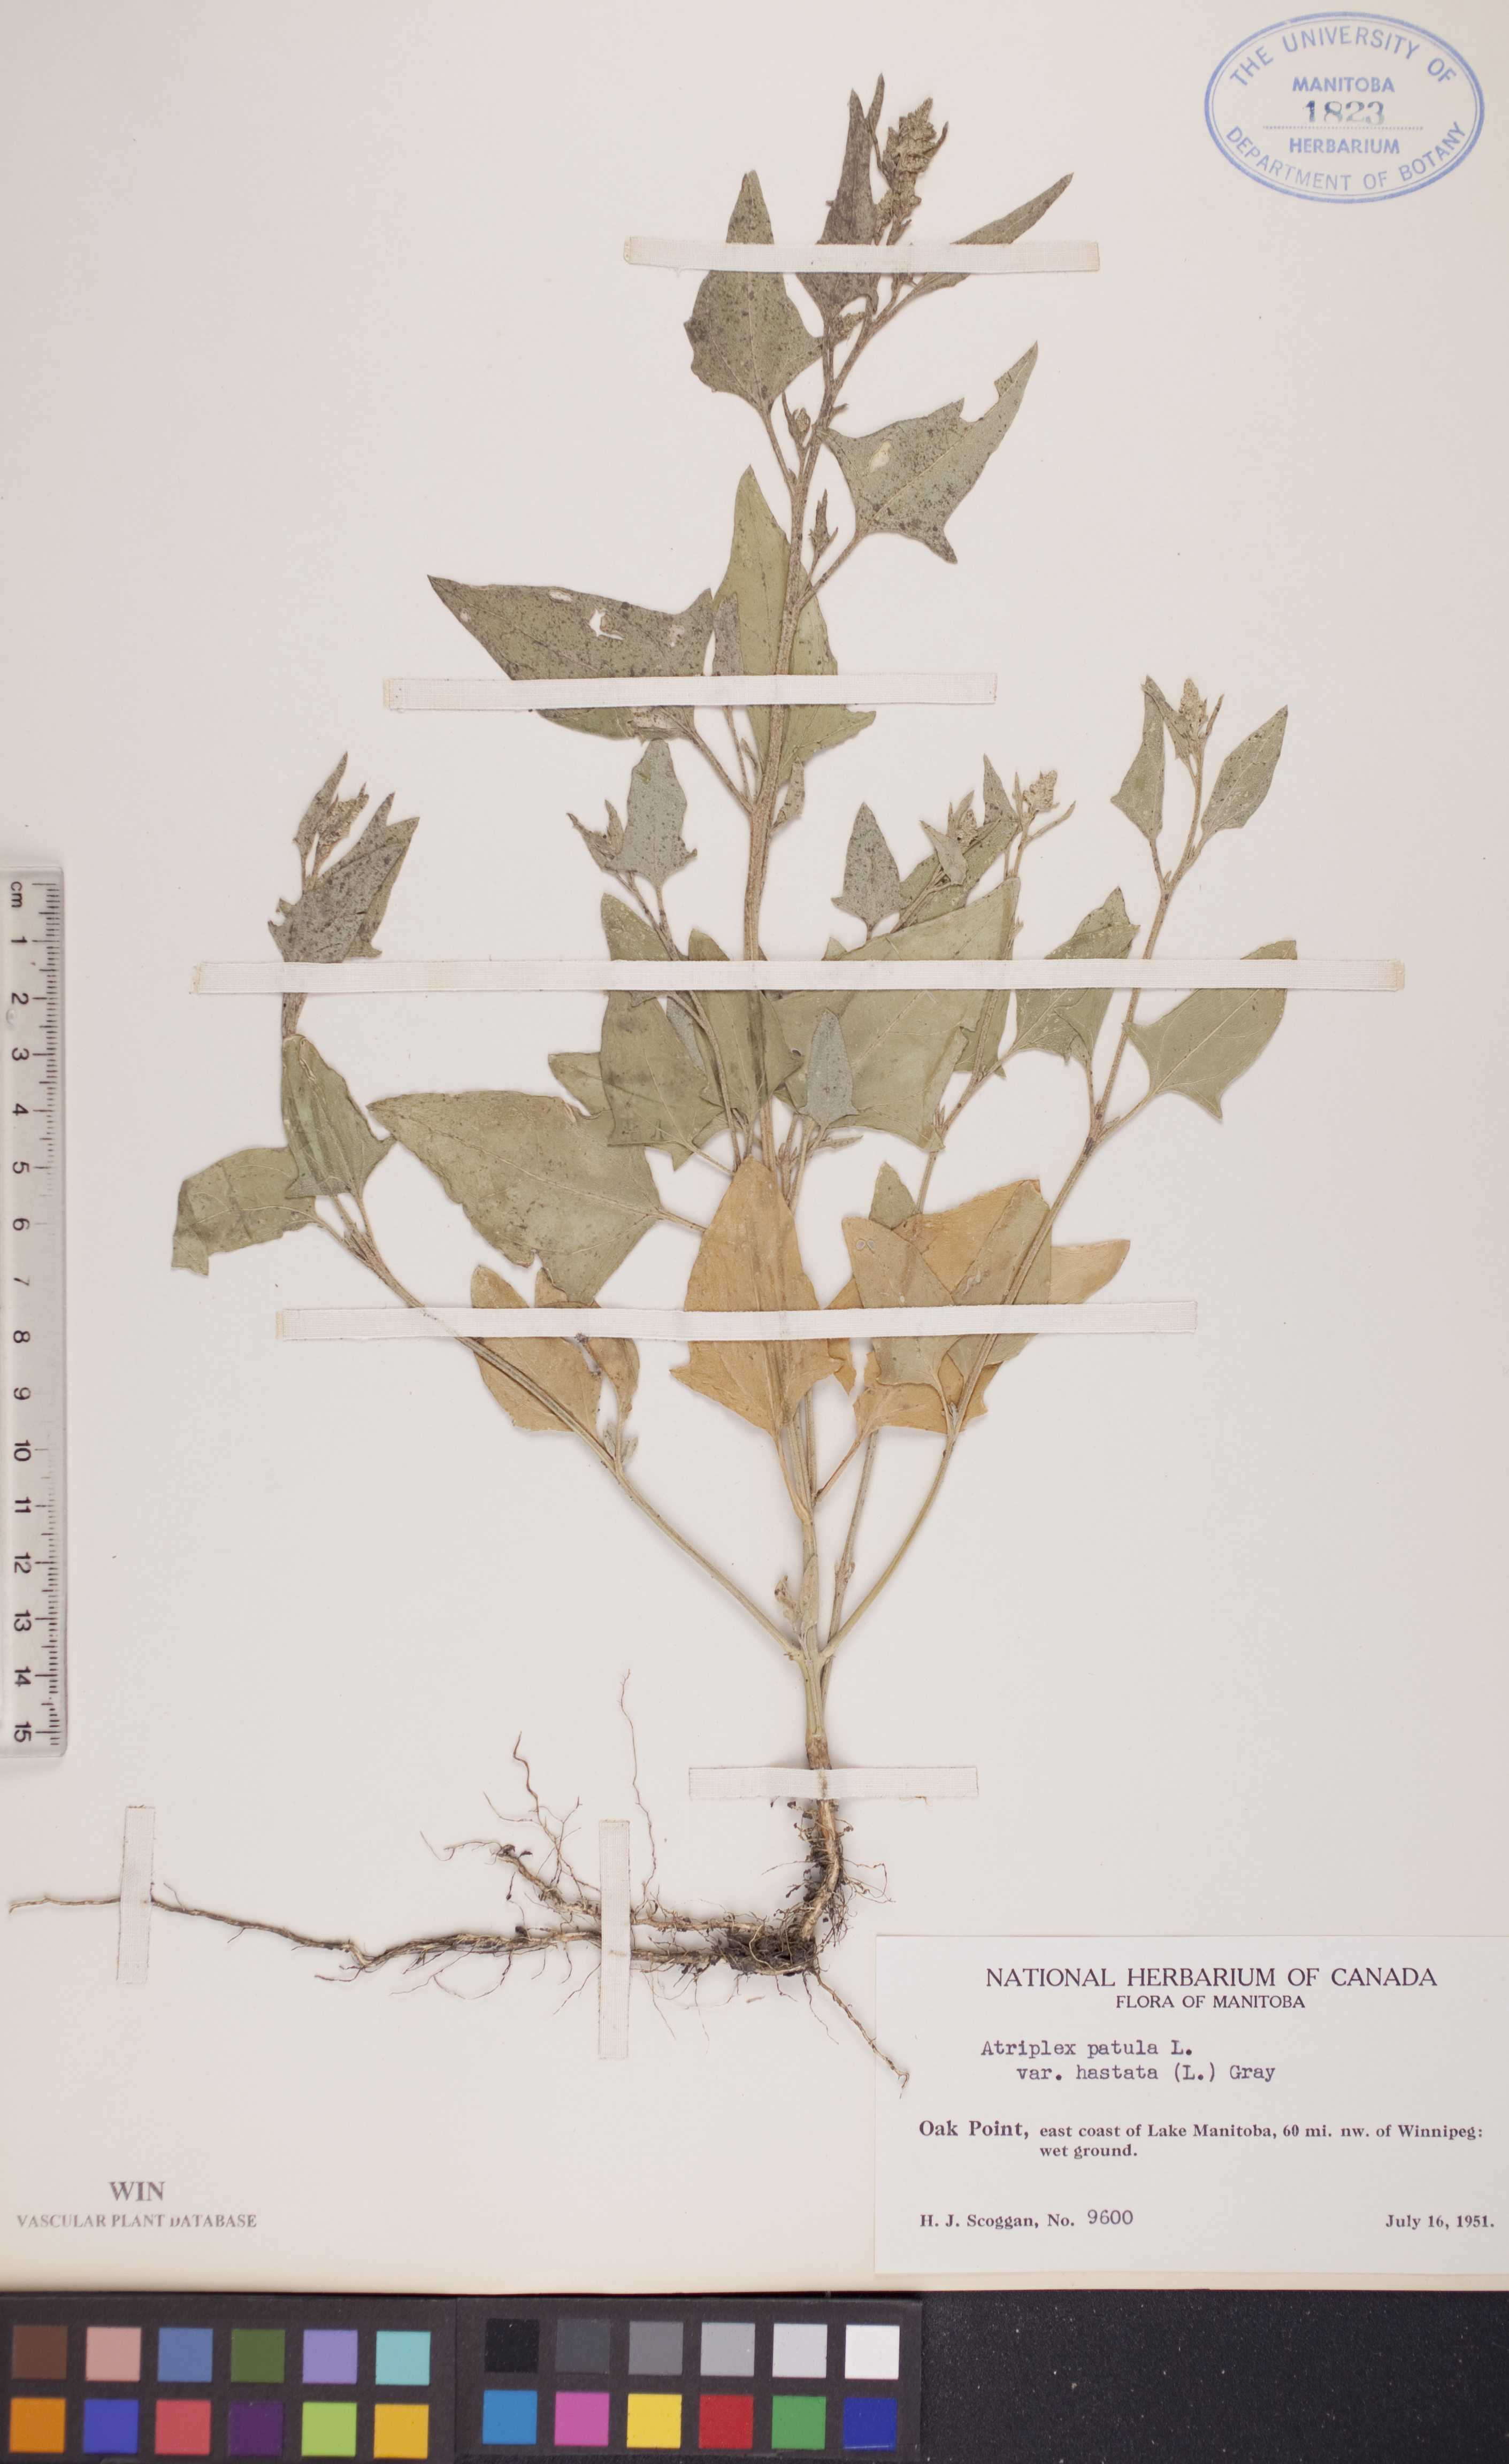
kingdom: Plantae
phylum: Tracheophyta
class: Magnoliopsida
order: Caryophyllales
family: Amaranthaceae
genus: Atriplex
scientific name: Atriplex
